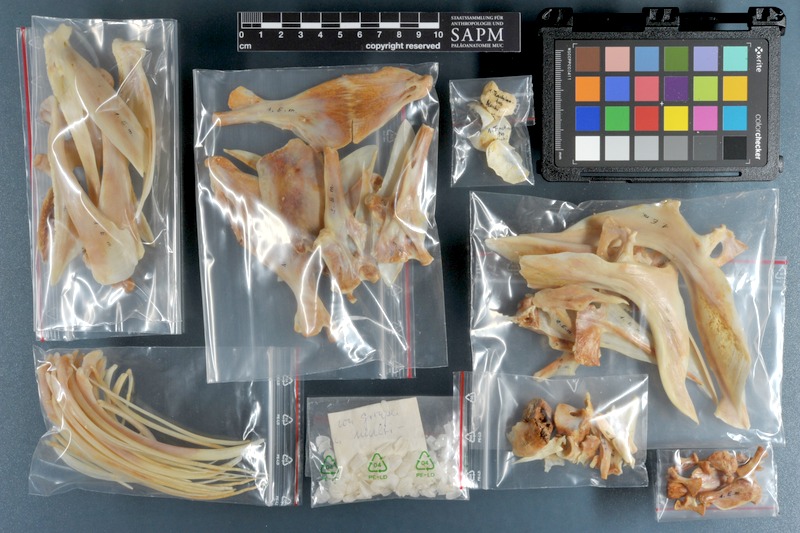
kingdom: Animalia
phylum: Chordata
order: Perciformes
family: Serranidae
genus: Epinephelus
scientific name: Epinephelus multinotatus
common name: Rankin's cod
